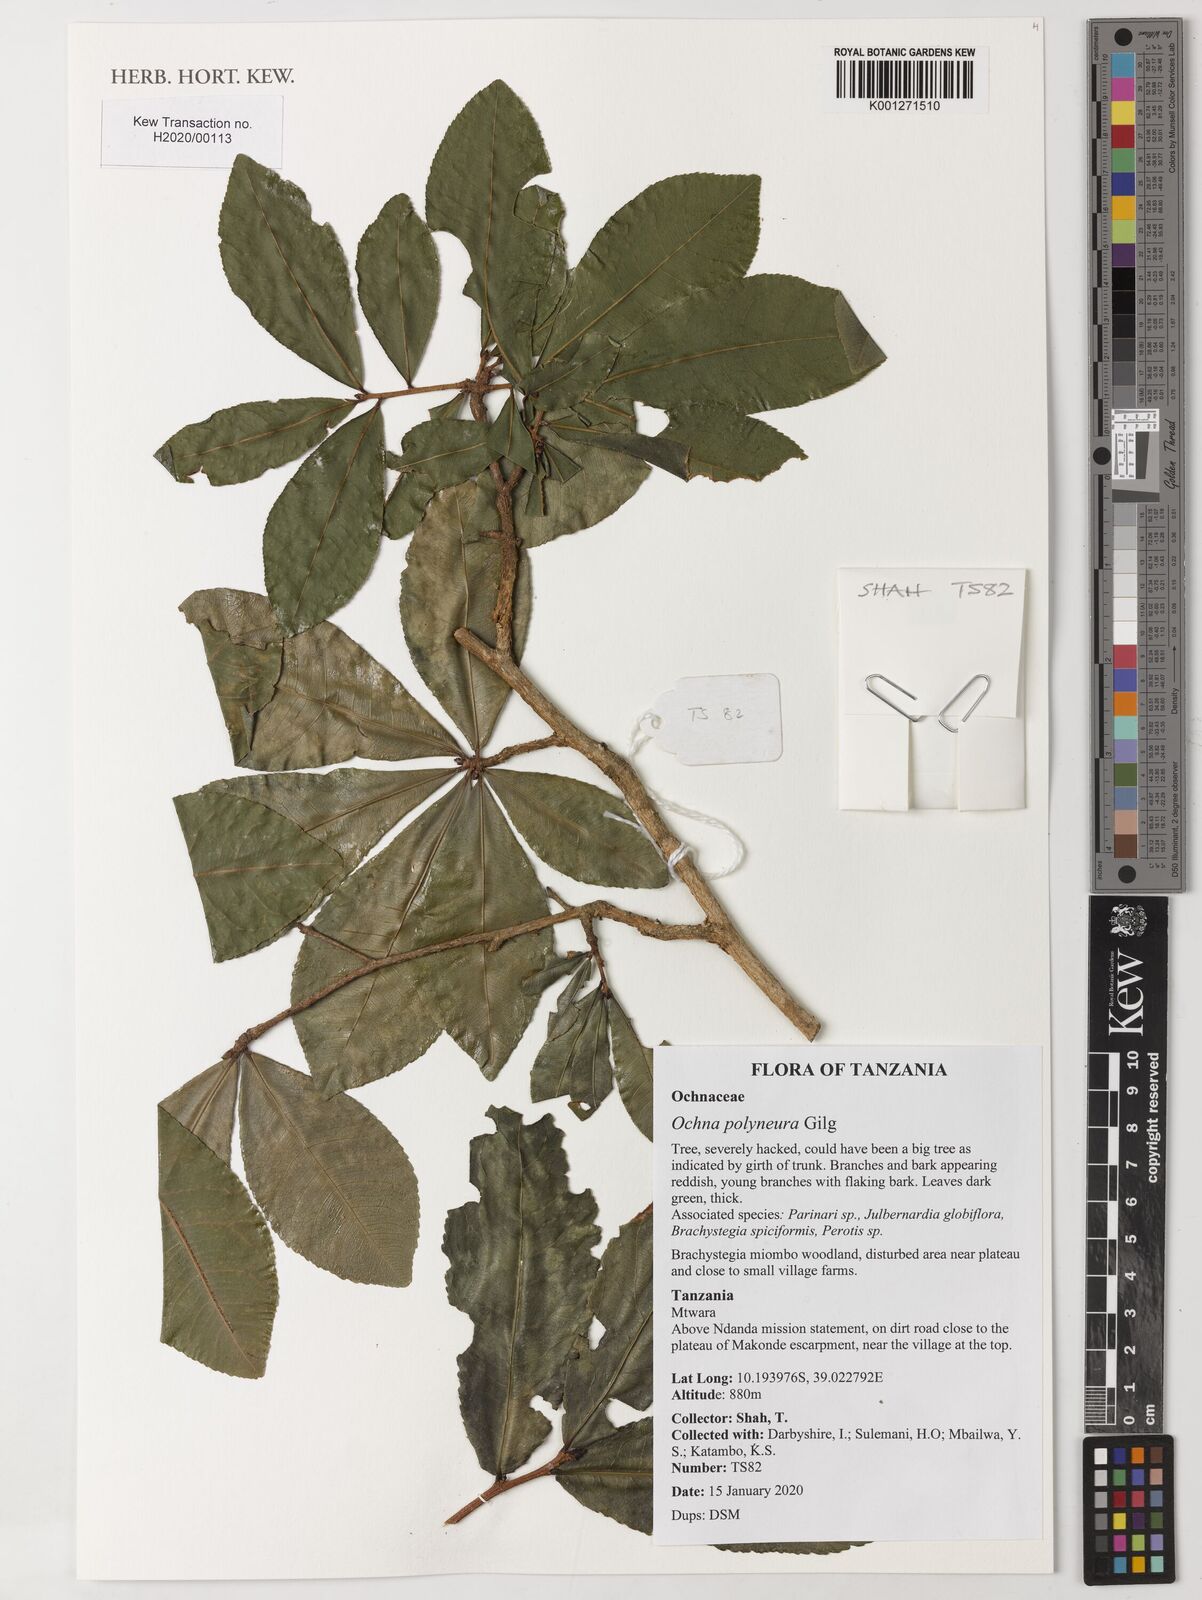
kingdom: Plantae
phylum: Tracheophyta
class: Magnoliopsida
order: Malpighiales
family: Ochnaceae
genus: Ochna
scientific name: Ochna polyneura
